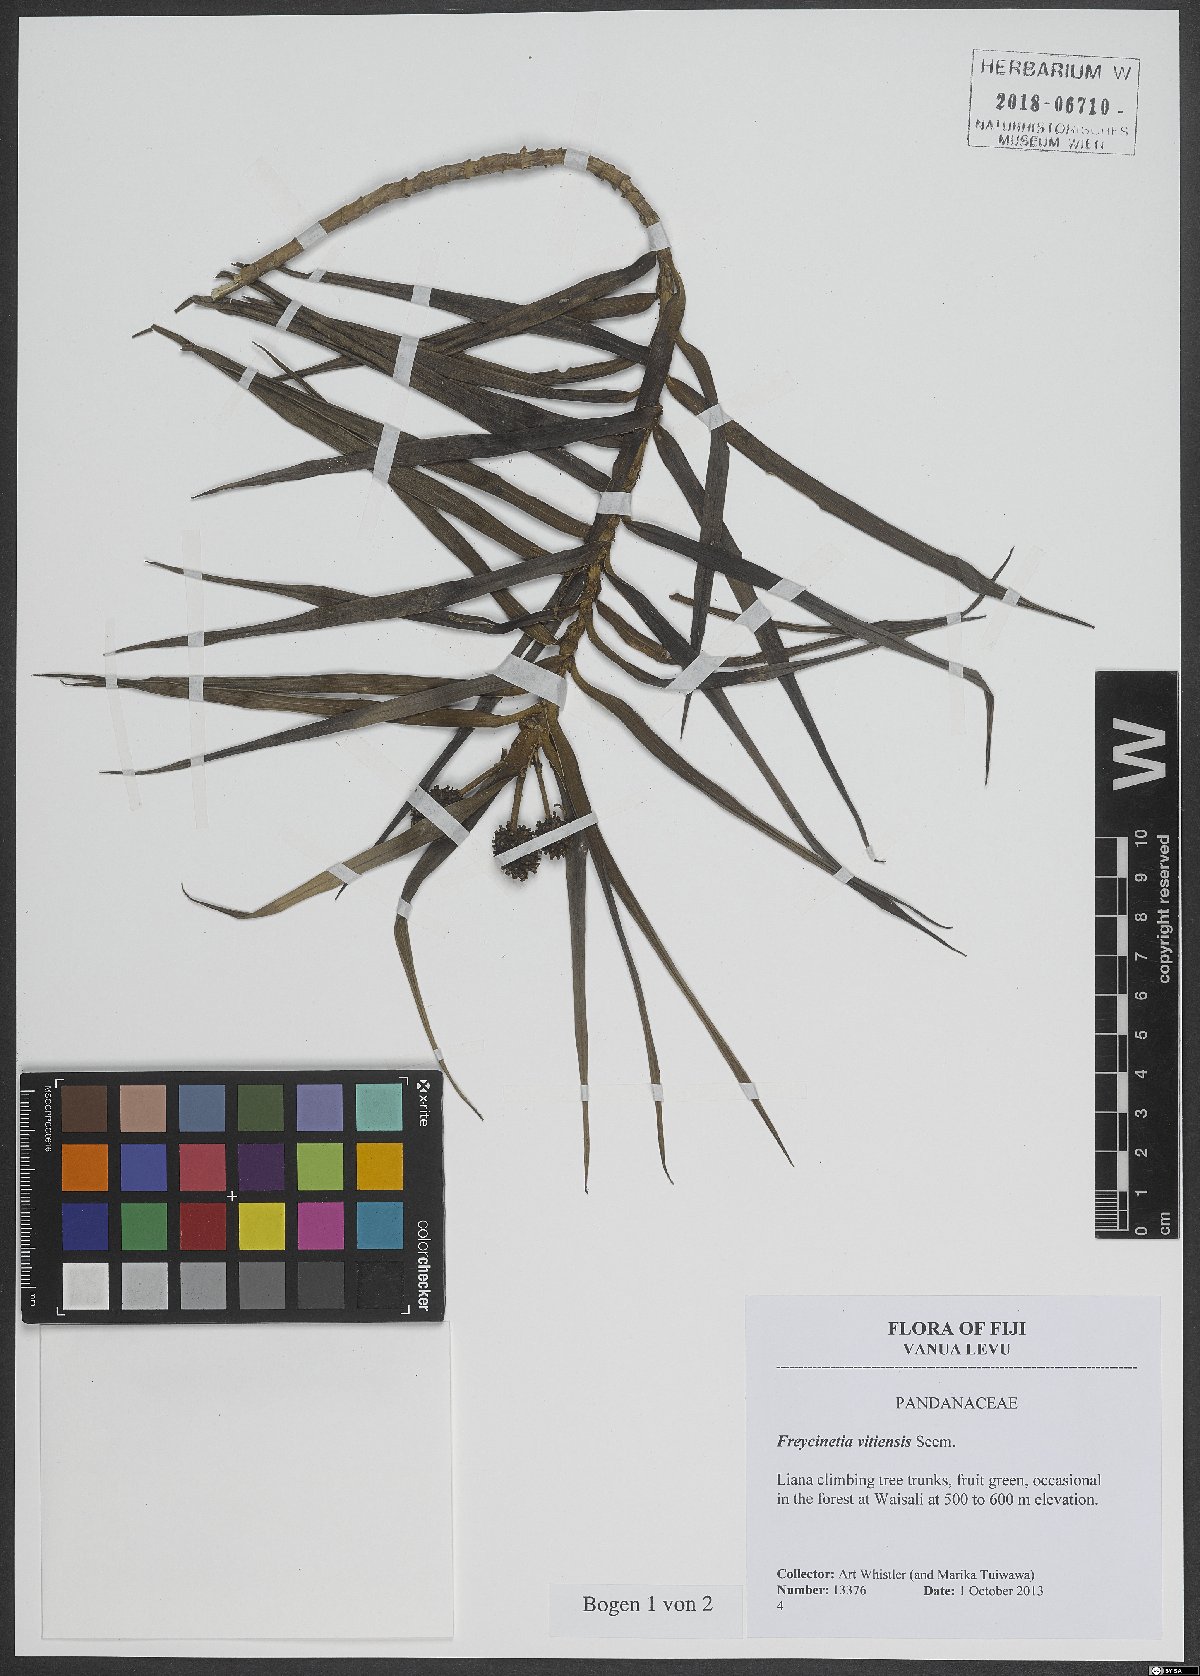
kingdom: Plantae
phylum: Tracheophyta
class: Liliopsida
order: Pandanales
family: Pandanaceae
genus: Freycinetia
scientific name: Freycinetia vitiensis
